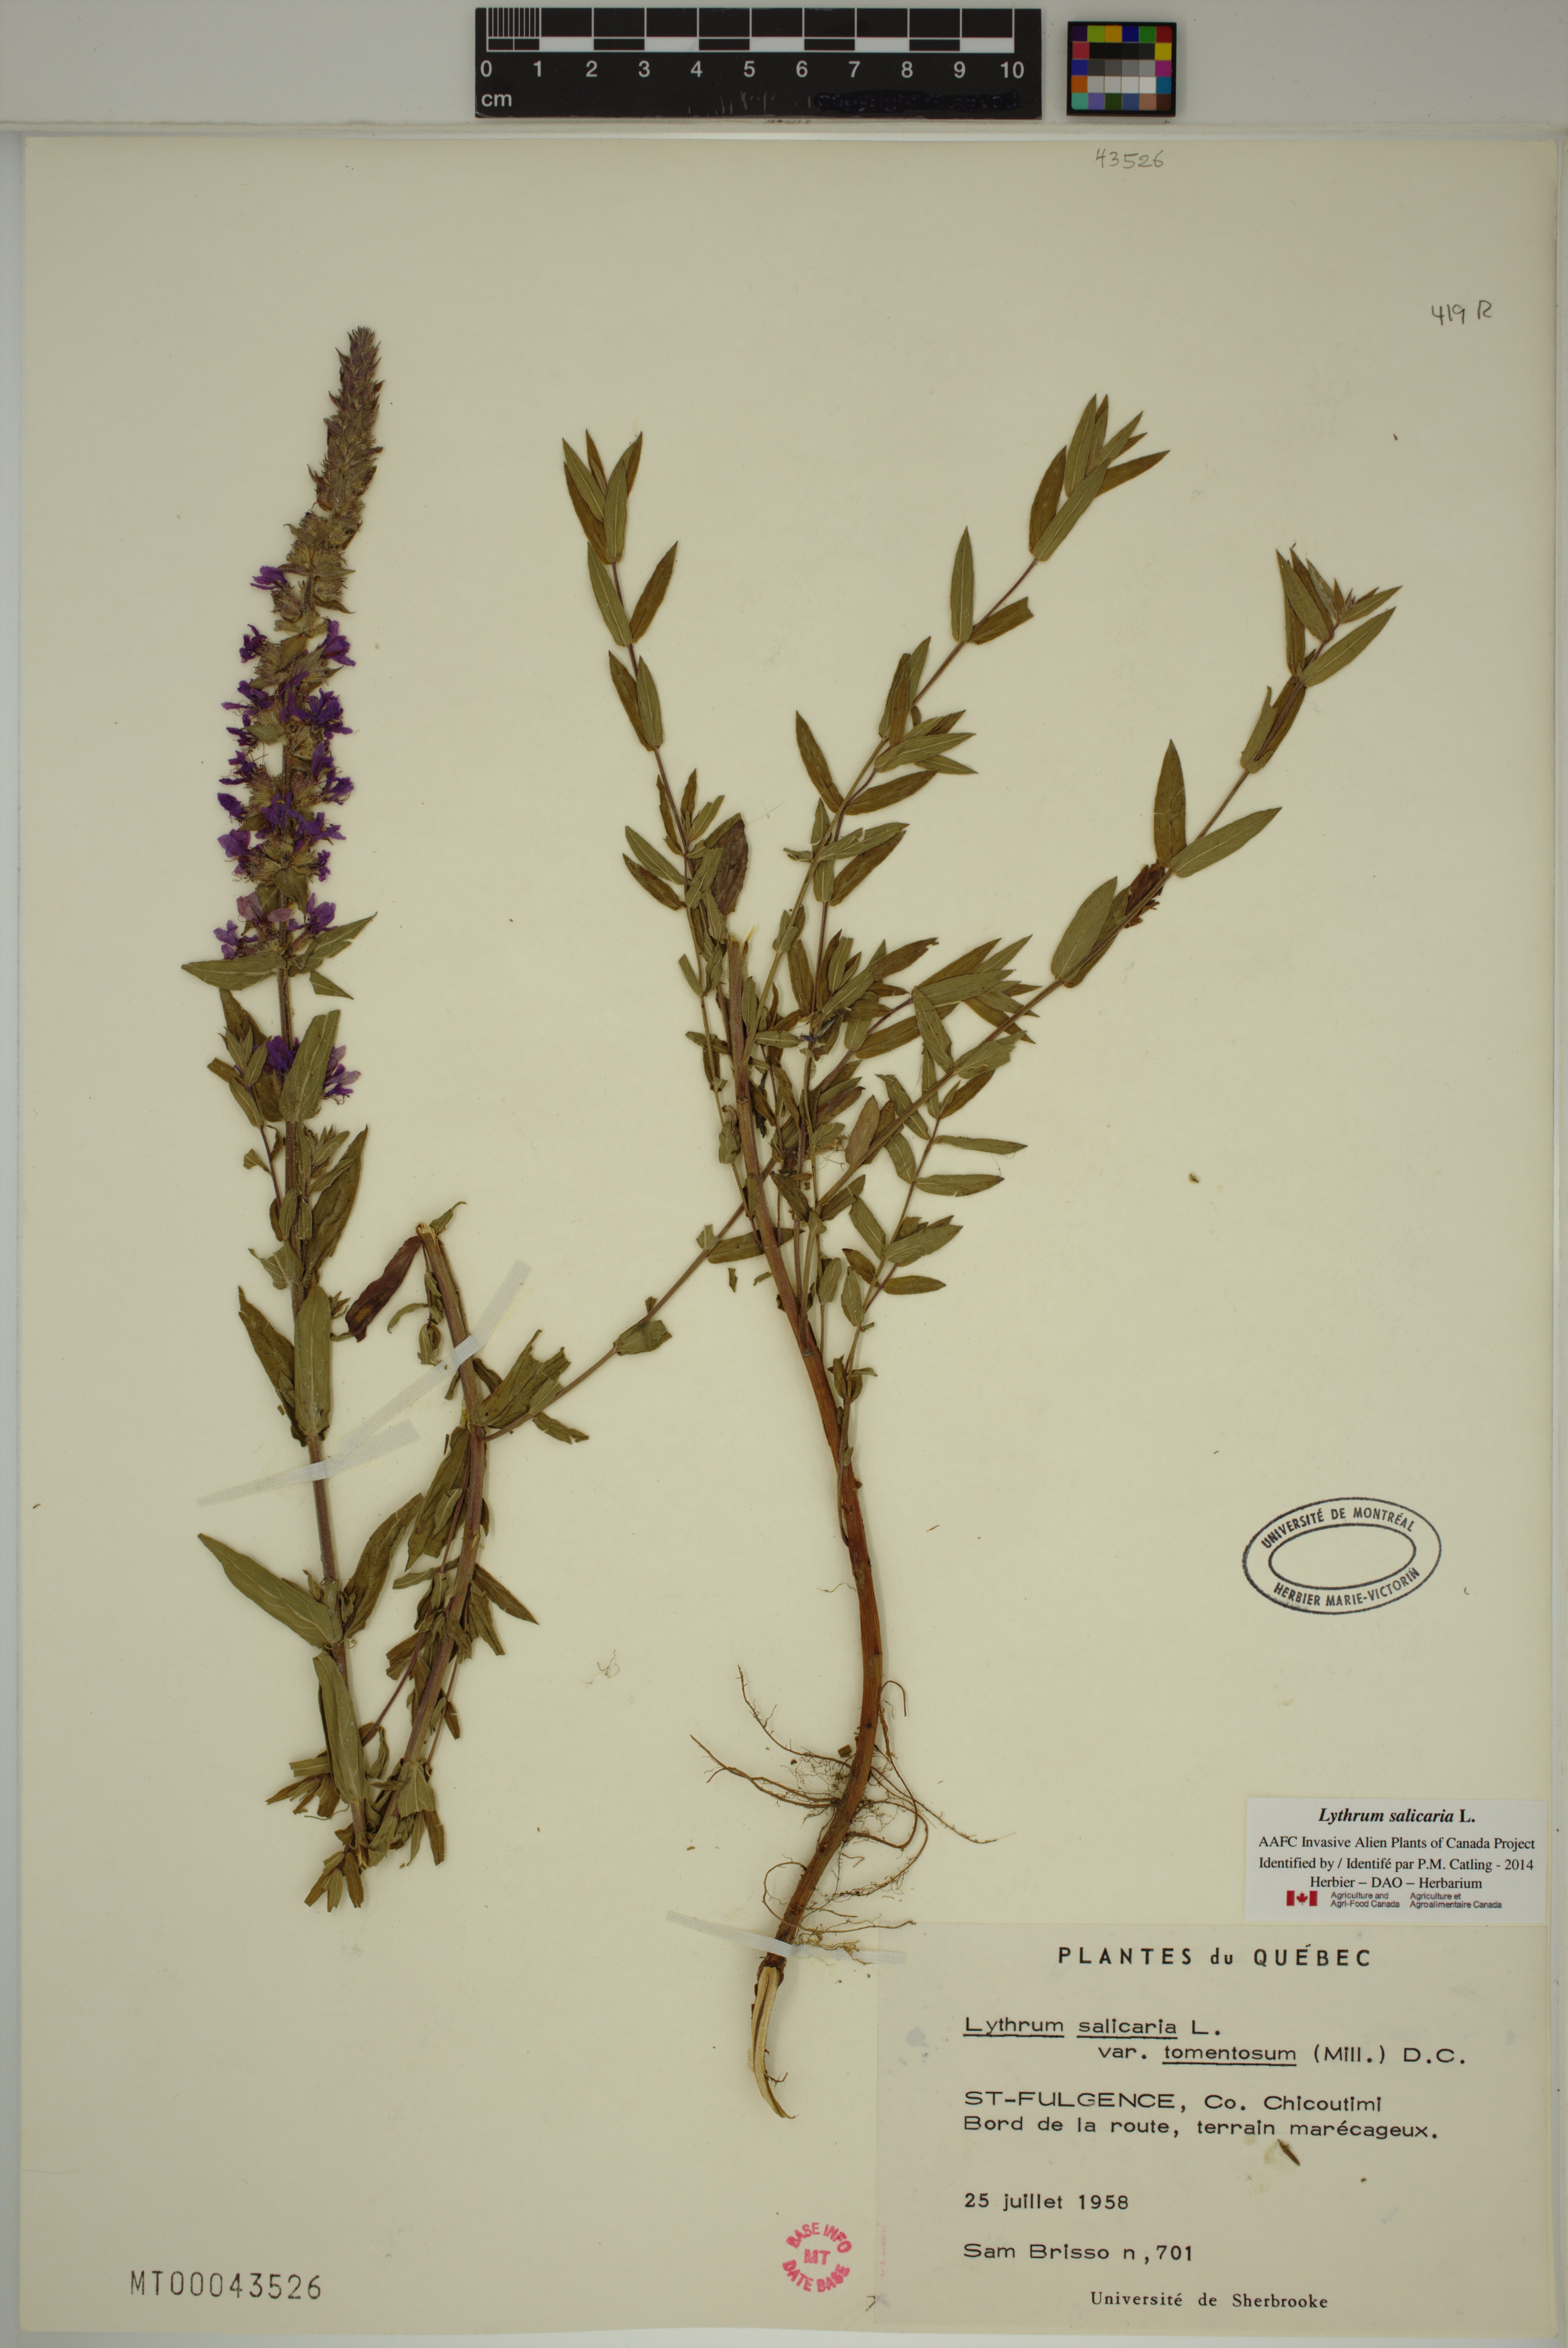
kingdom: Plantae
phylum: Tracheophyta
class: Magnoliopsida
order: Myrtales
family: Lythraceae
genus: Lythrum
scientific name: Lythrum salicaria
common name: Purple loosestrife
